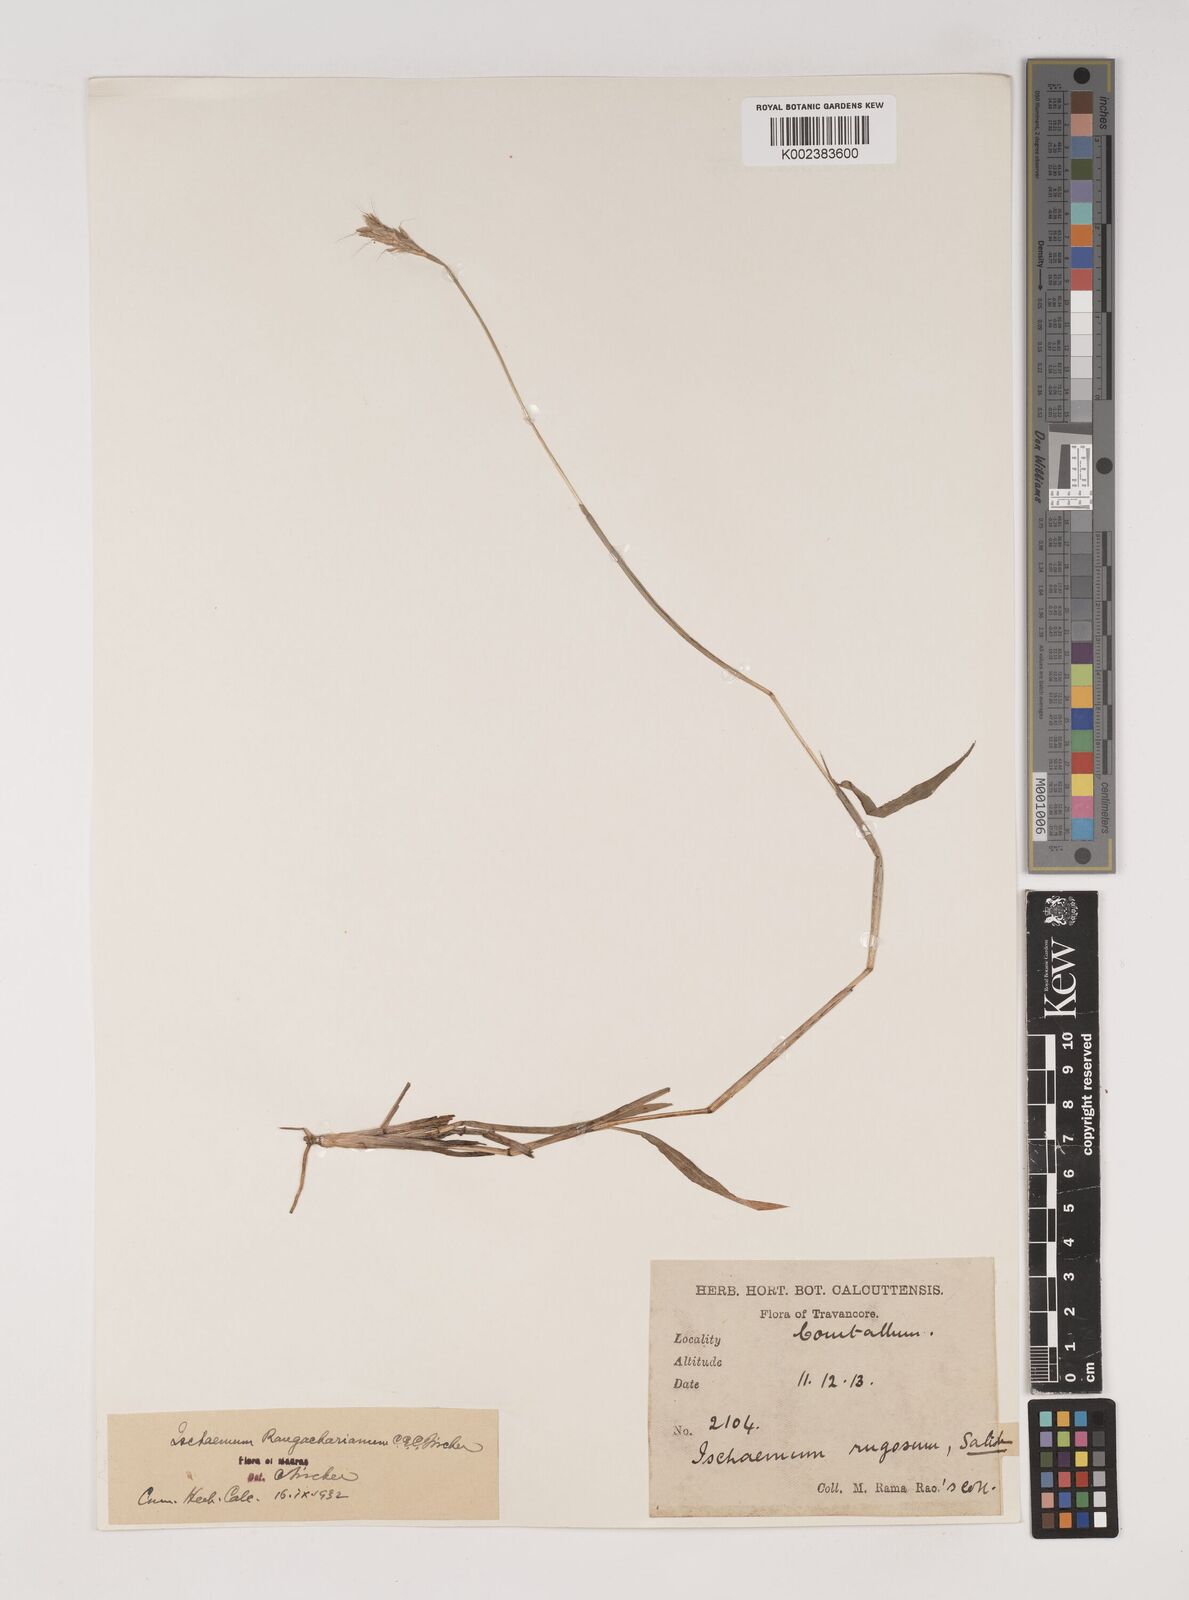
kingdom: Plantae
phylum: Tracheophyta
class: Liliopsida
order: Poales
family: Poaceae
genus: Ischaemum
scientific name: Ischaemum rangacharianum
